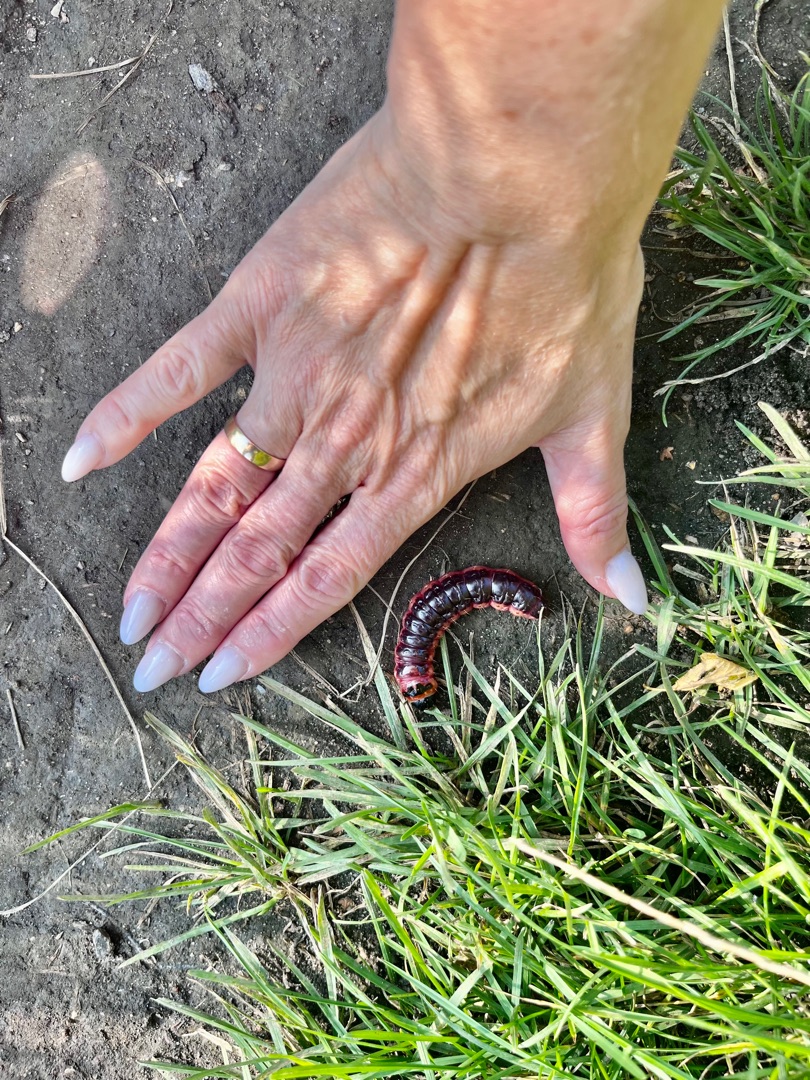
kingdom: Animalia
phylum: Arthropoda
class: Insecta
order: Lepidoptera
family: Cossidae
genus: Cossus
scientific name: Cossus cossus
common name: Pileborer
